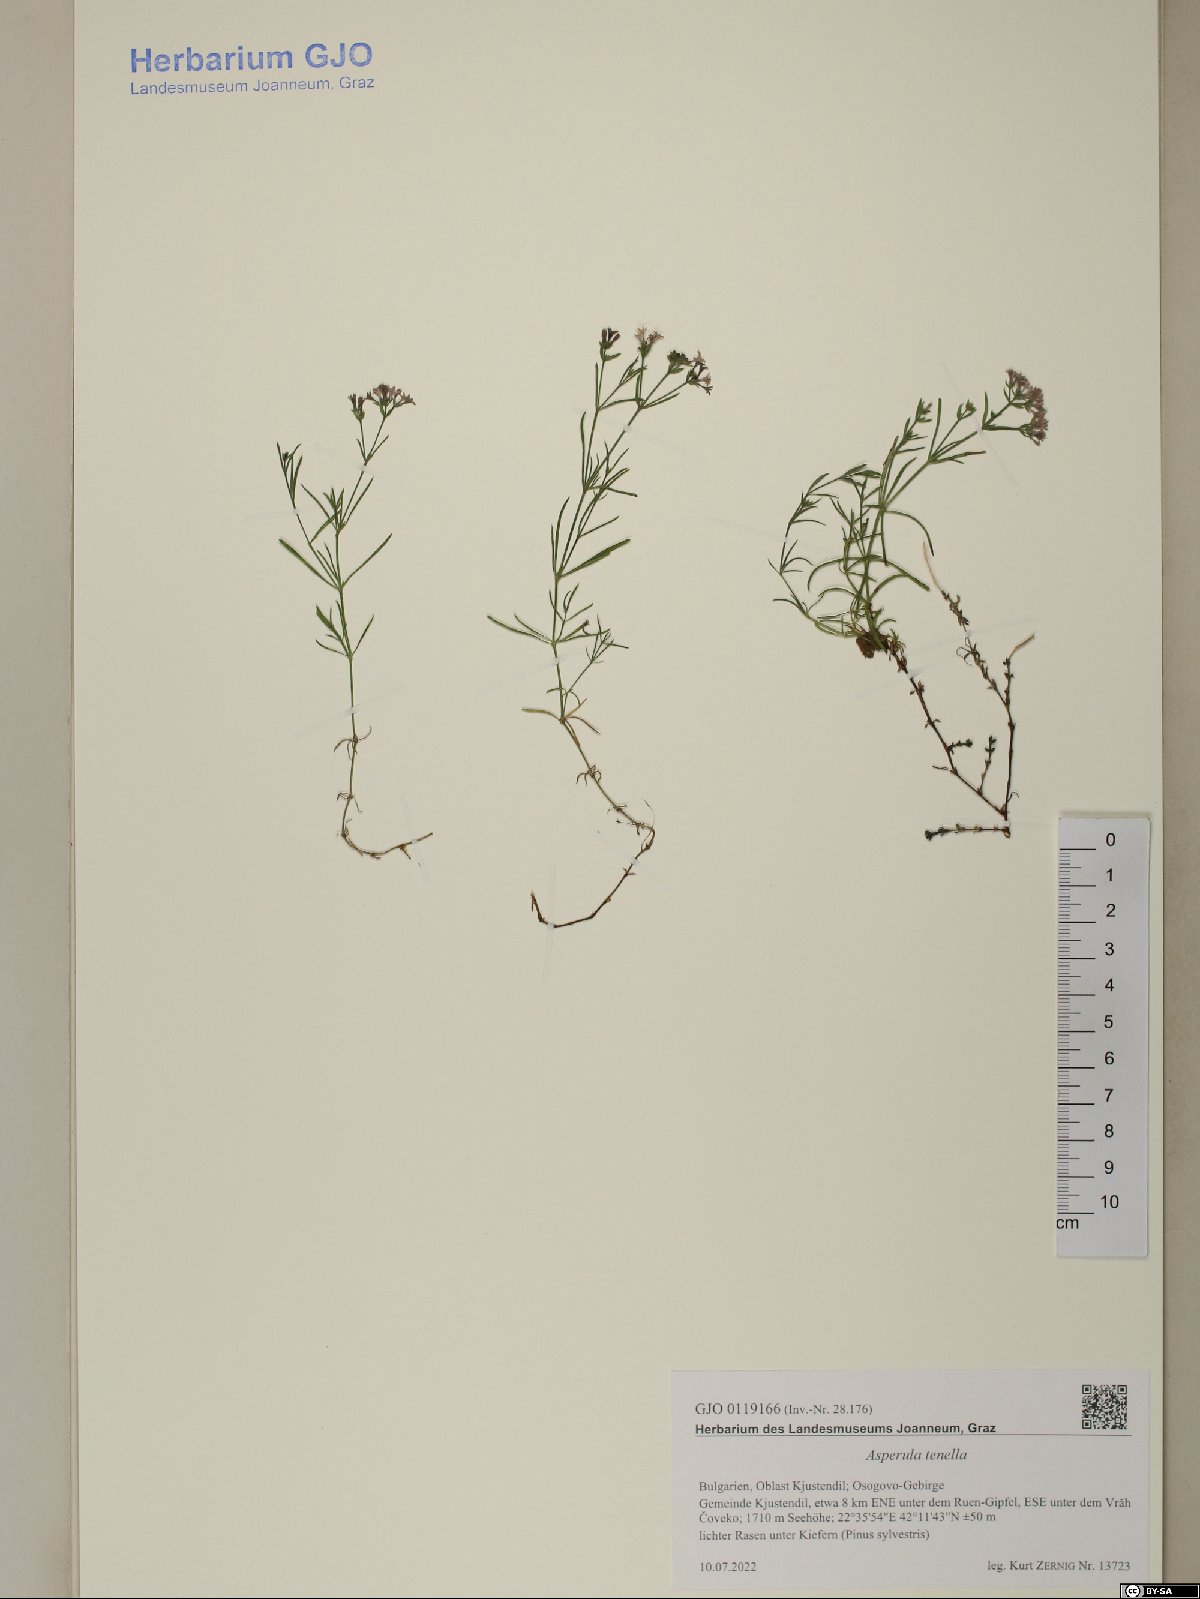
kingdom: Plantae
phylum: Tracheophyta
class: Magnoliopsida
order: Gentianales
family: Rubiaceae
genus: Cynanchica
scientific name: Cynanchica tenella
